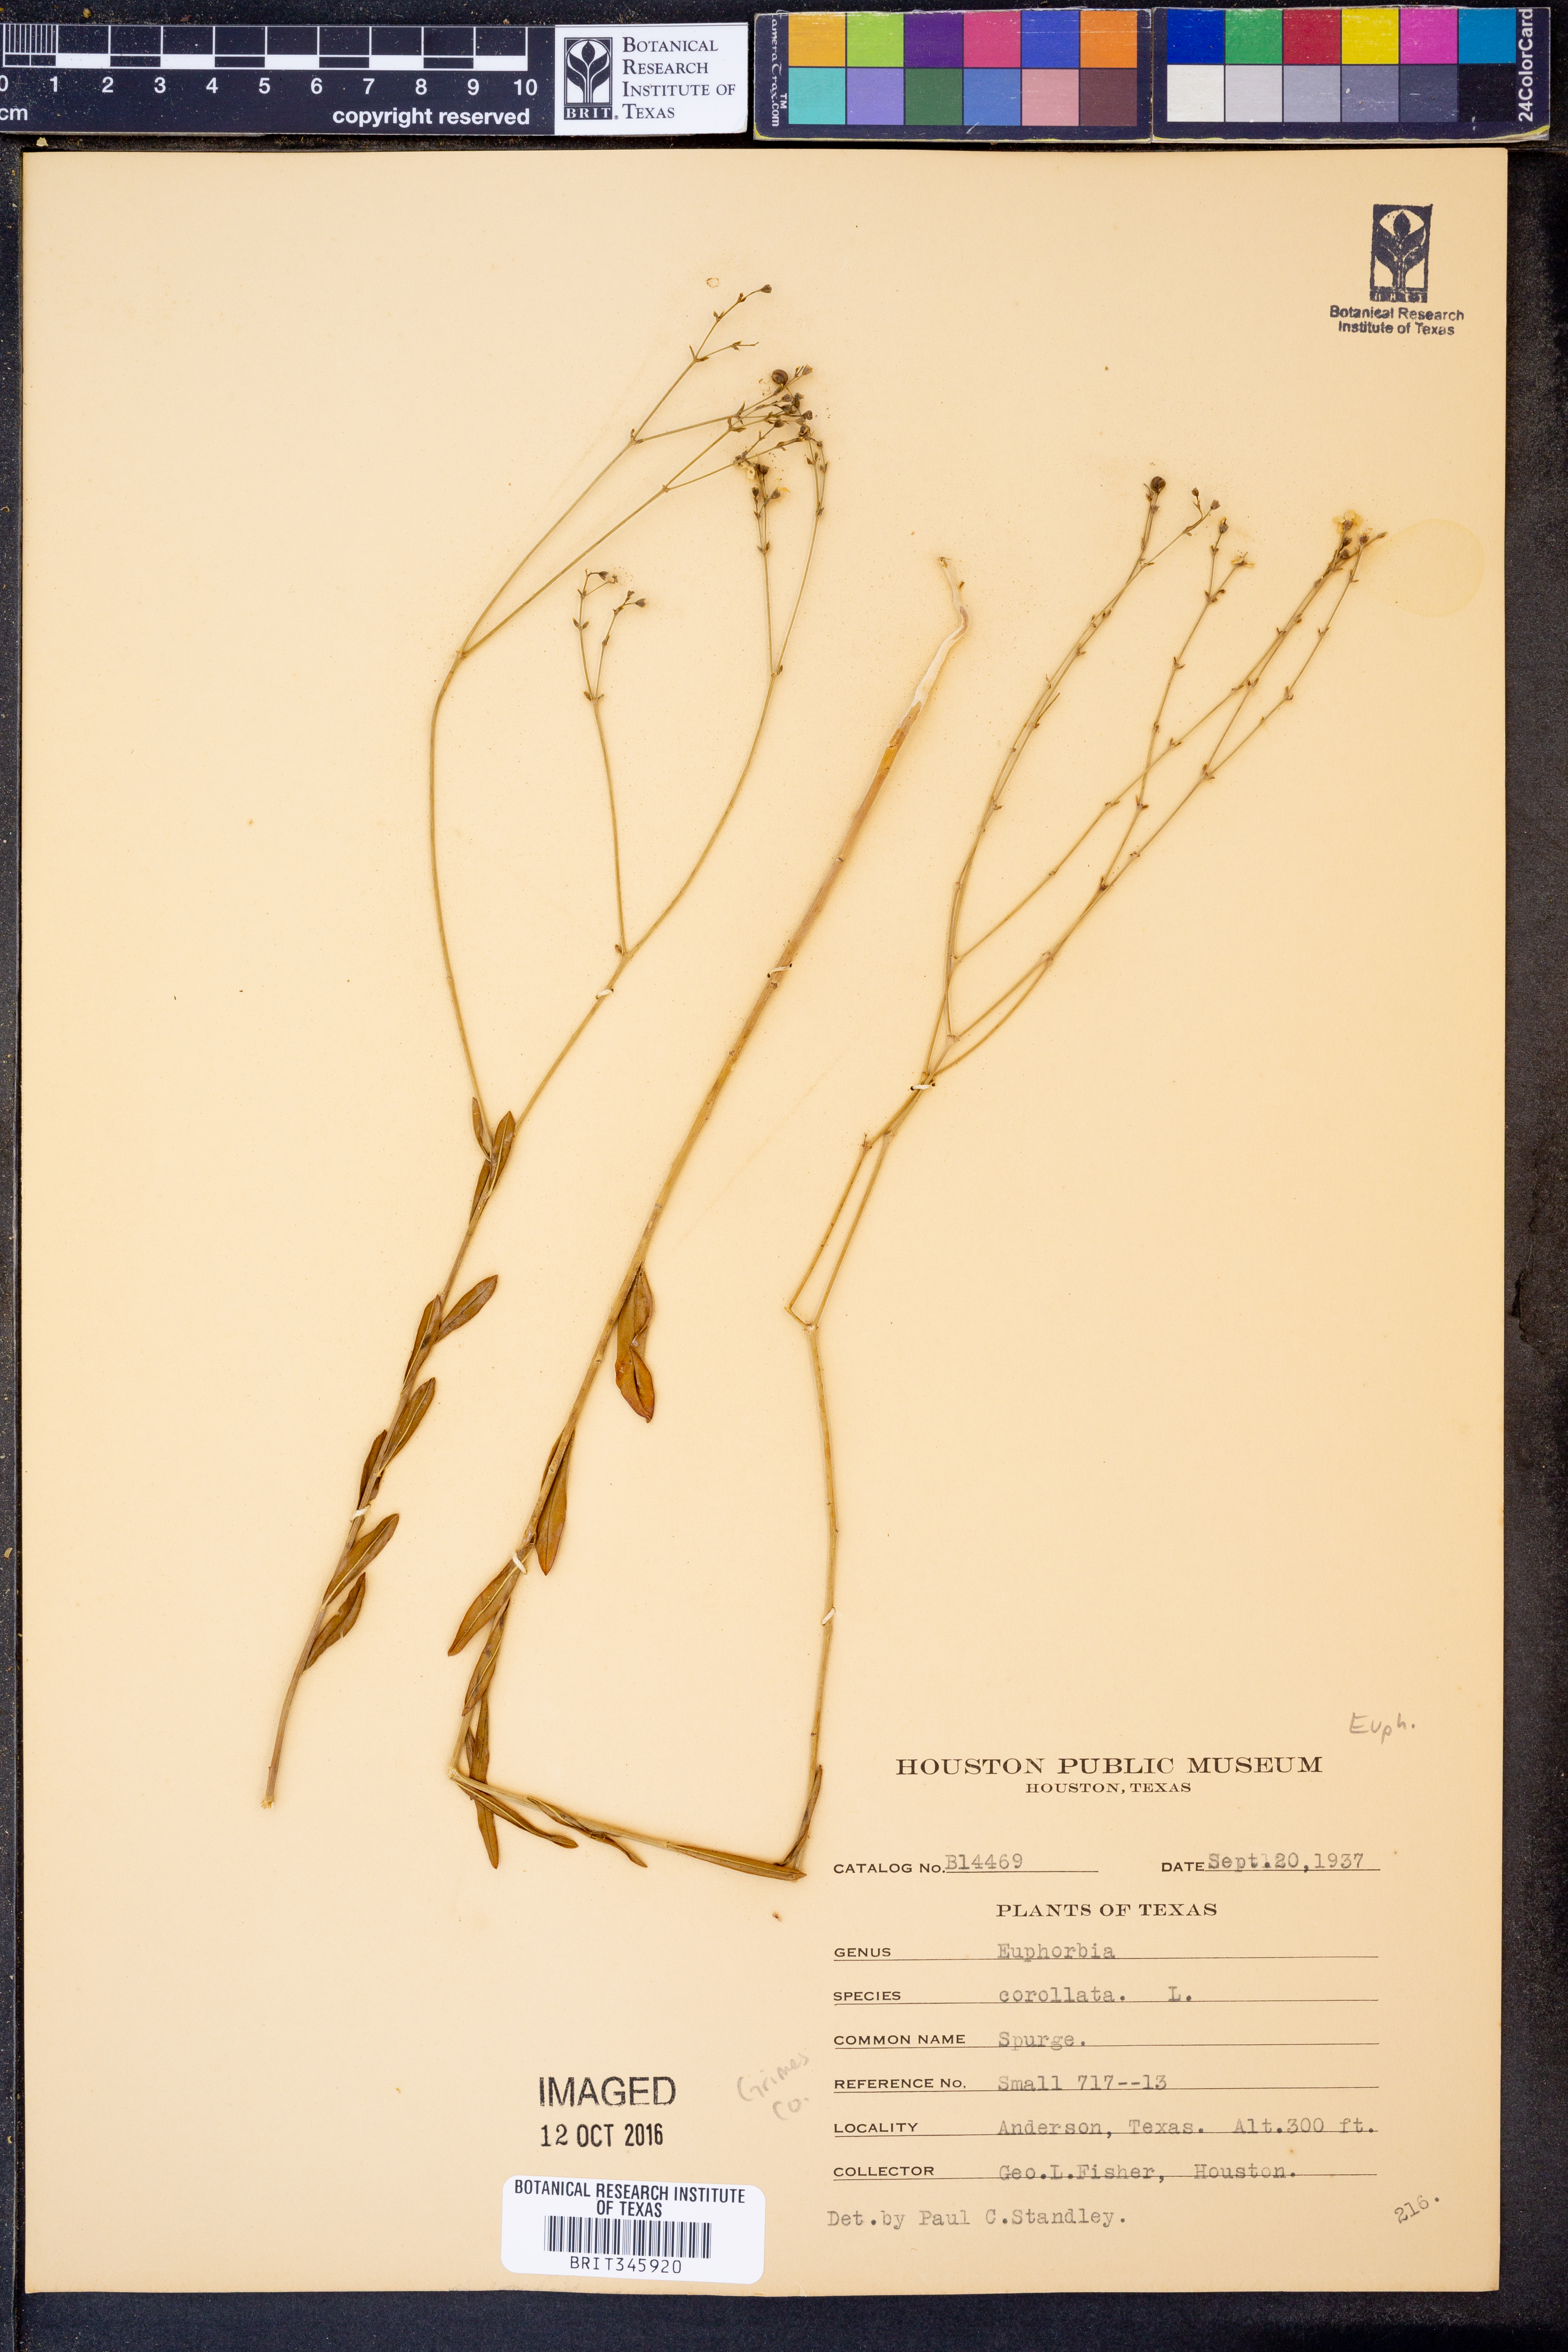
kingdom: Plantae
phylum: Tracheophyta
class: Magnoliopsida
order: Malpighiales
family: Euphorbiaceae
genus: Euphorbia
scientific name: Euphorbia corollata
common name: Flowering spurge
